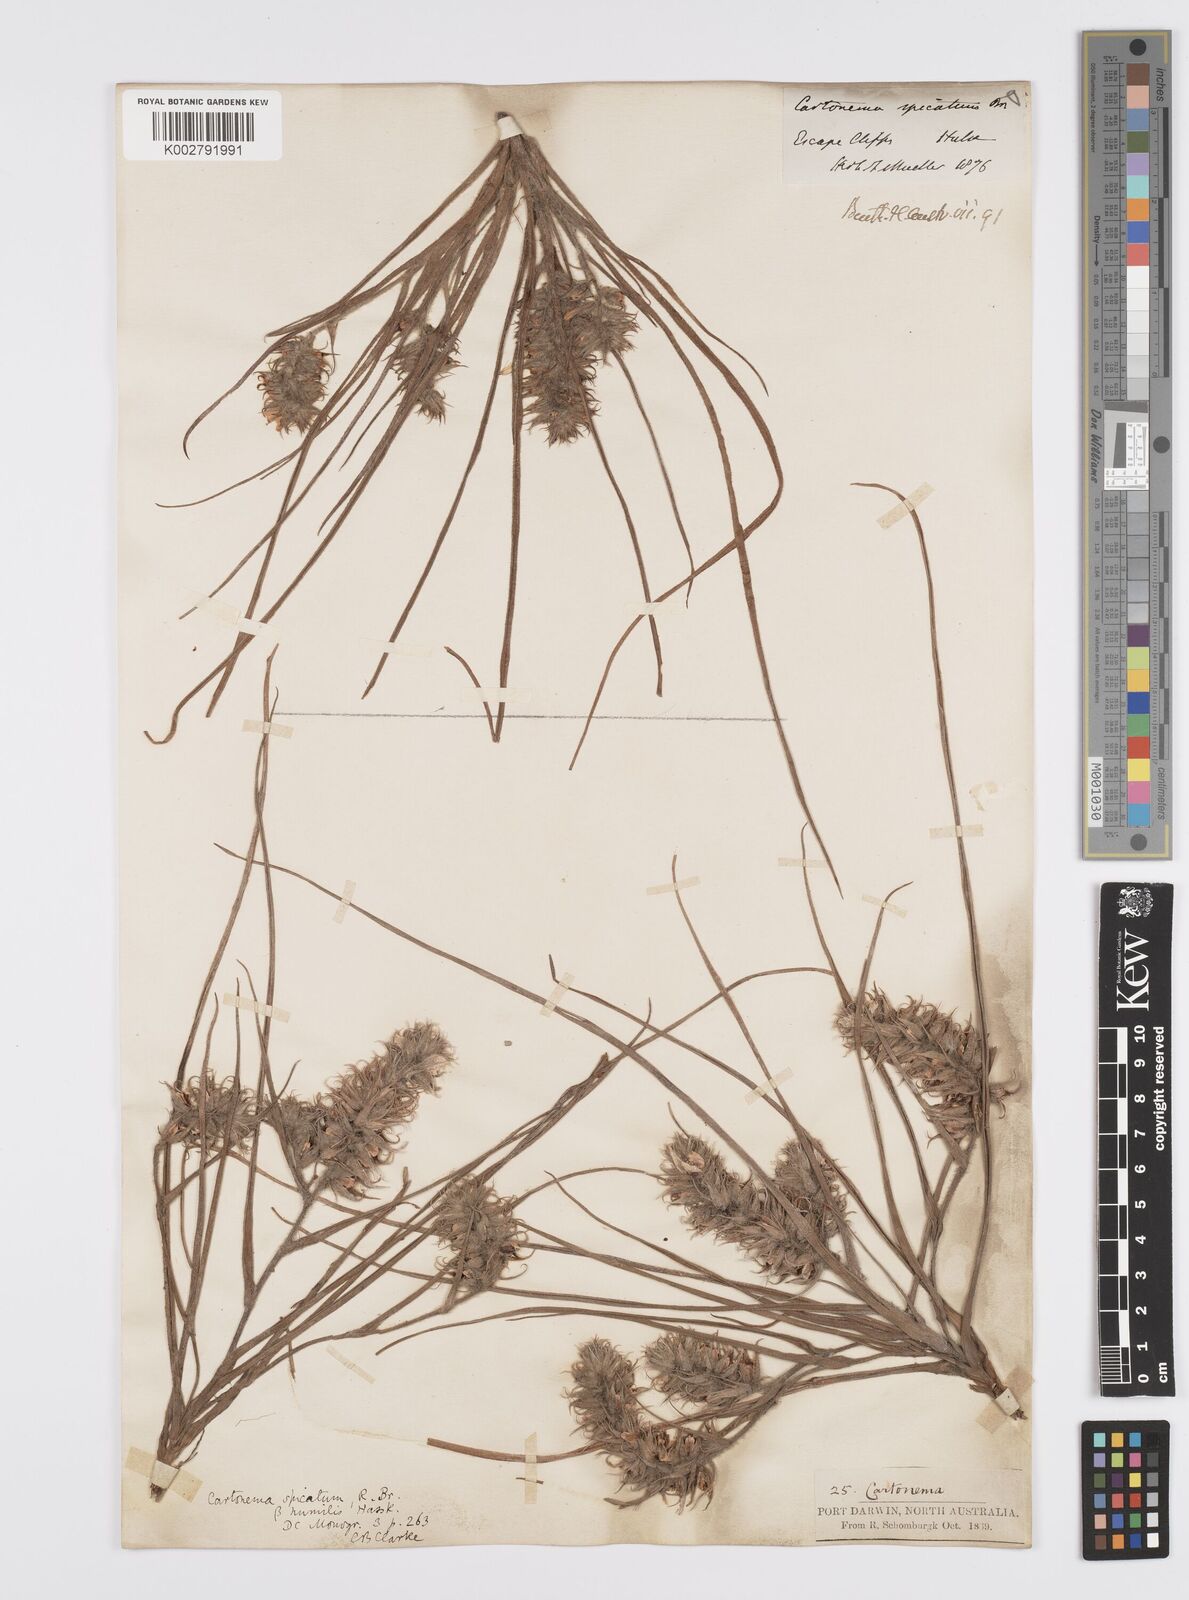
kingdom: Plantae
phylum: Tracheophyta
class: Liliopsida
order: Commelinales
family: Commelinaceae
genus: Cartonema
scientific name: Cartonema spicatum
